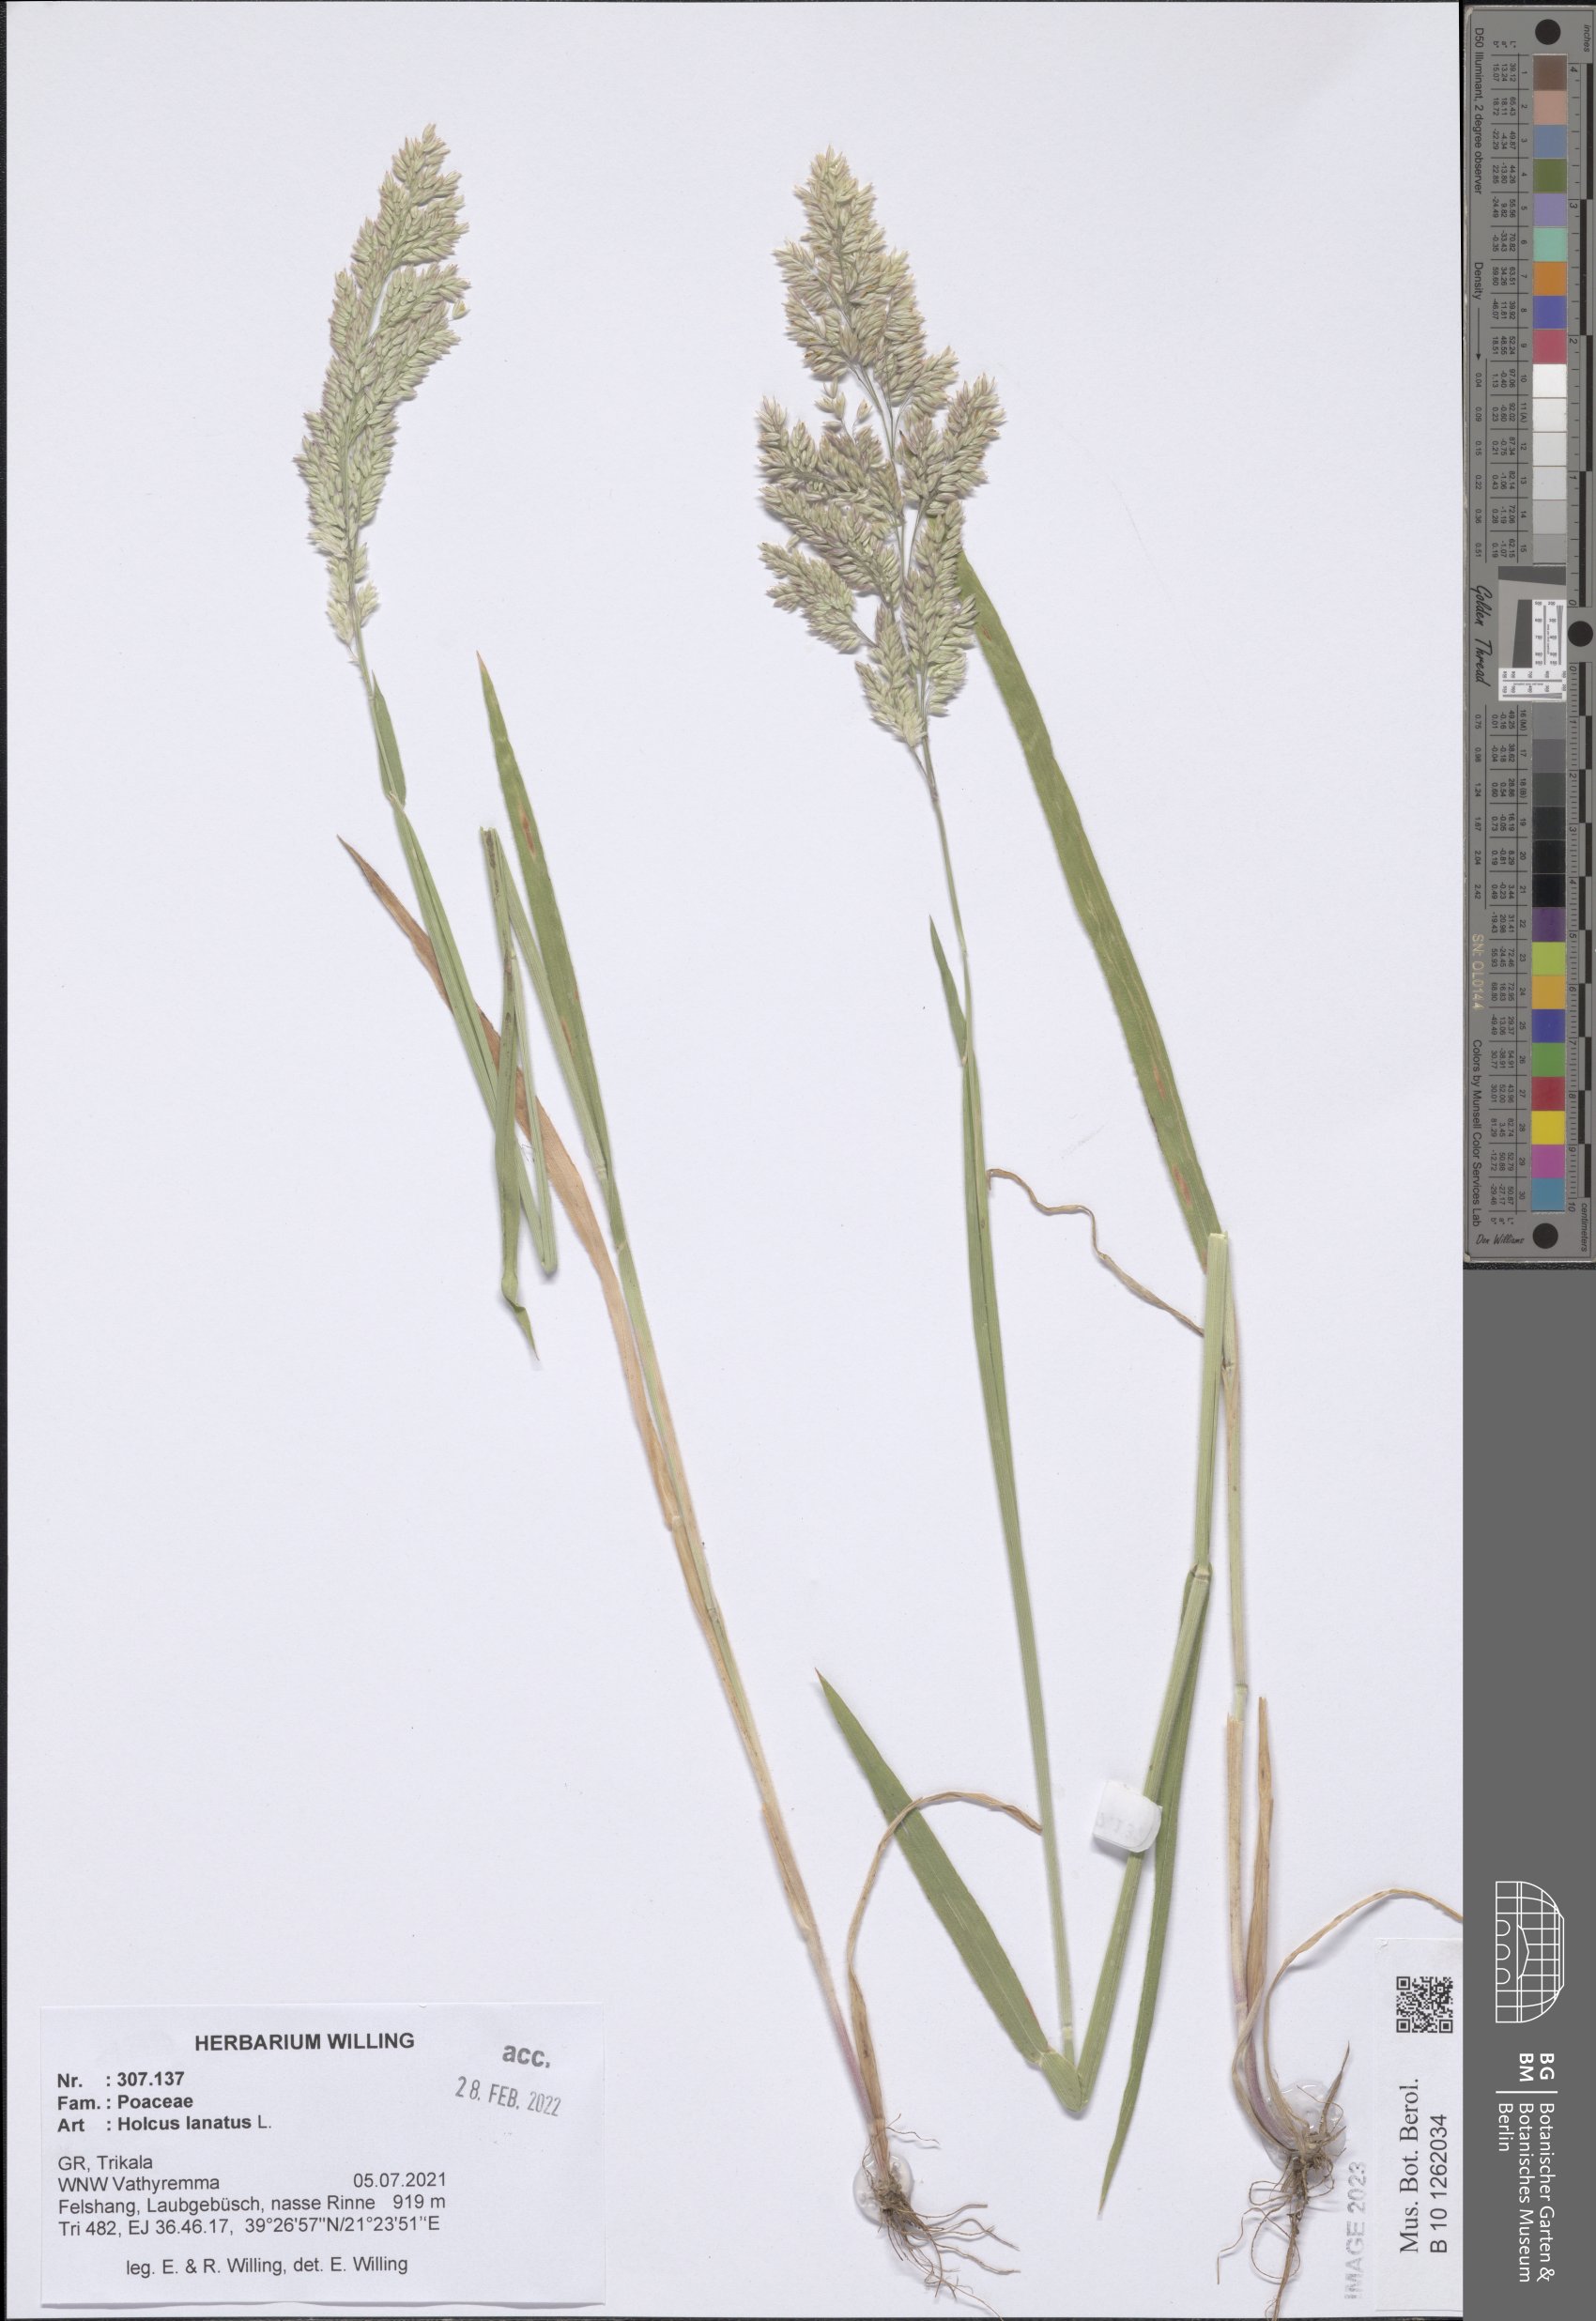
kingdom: Plantae
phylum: Tracheophyta
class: Liliopsida
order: Poales
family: Poaceae
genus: Holcus
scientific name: Holcus lanatus
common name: Yorkshire-fog
